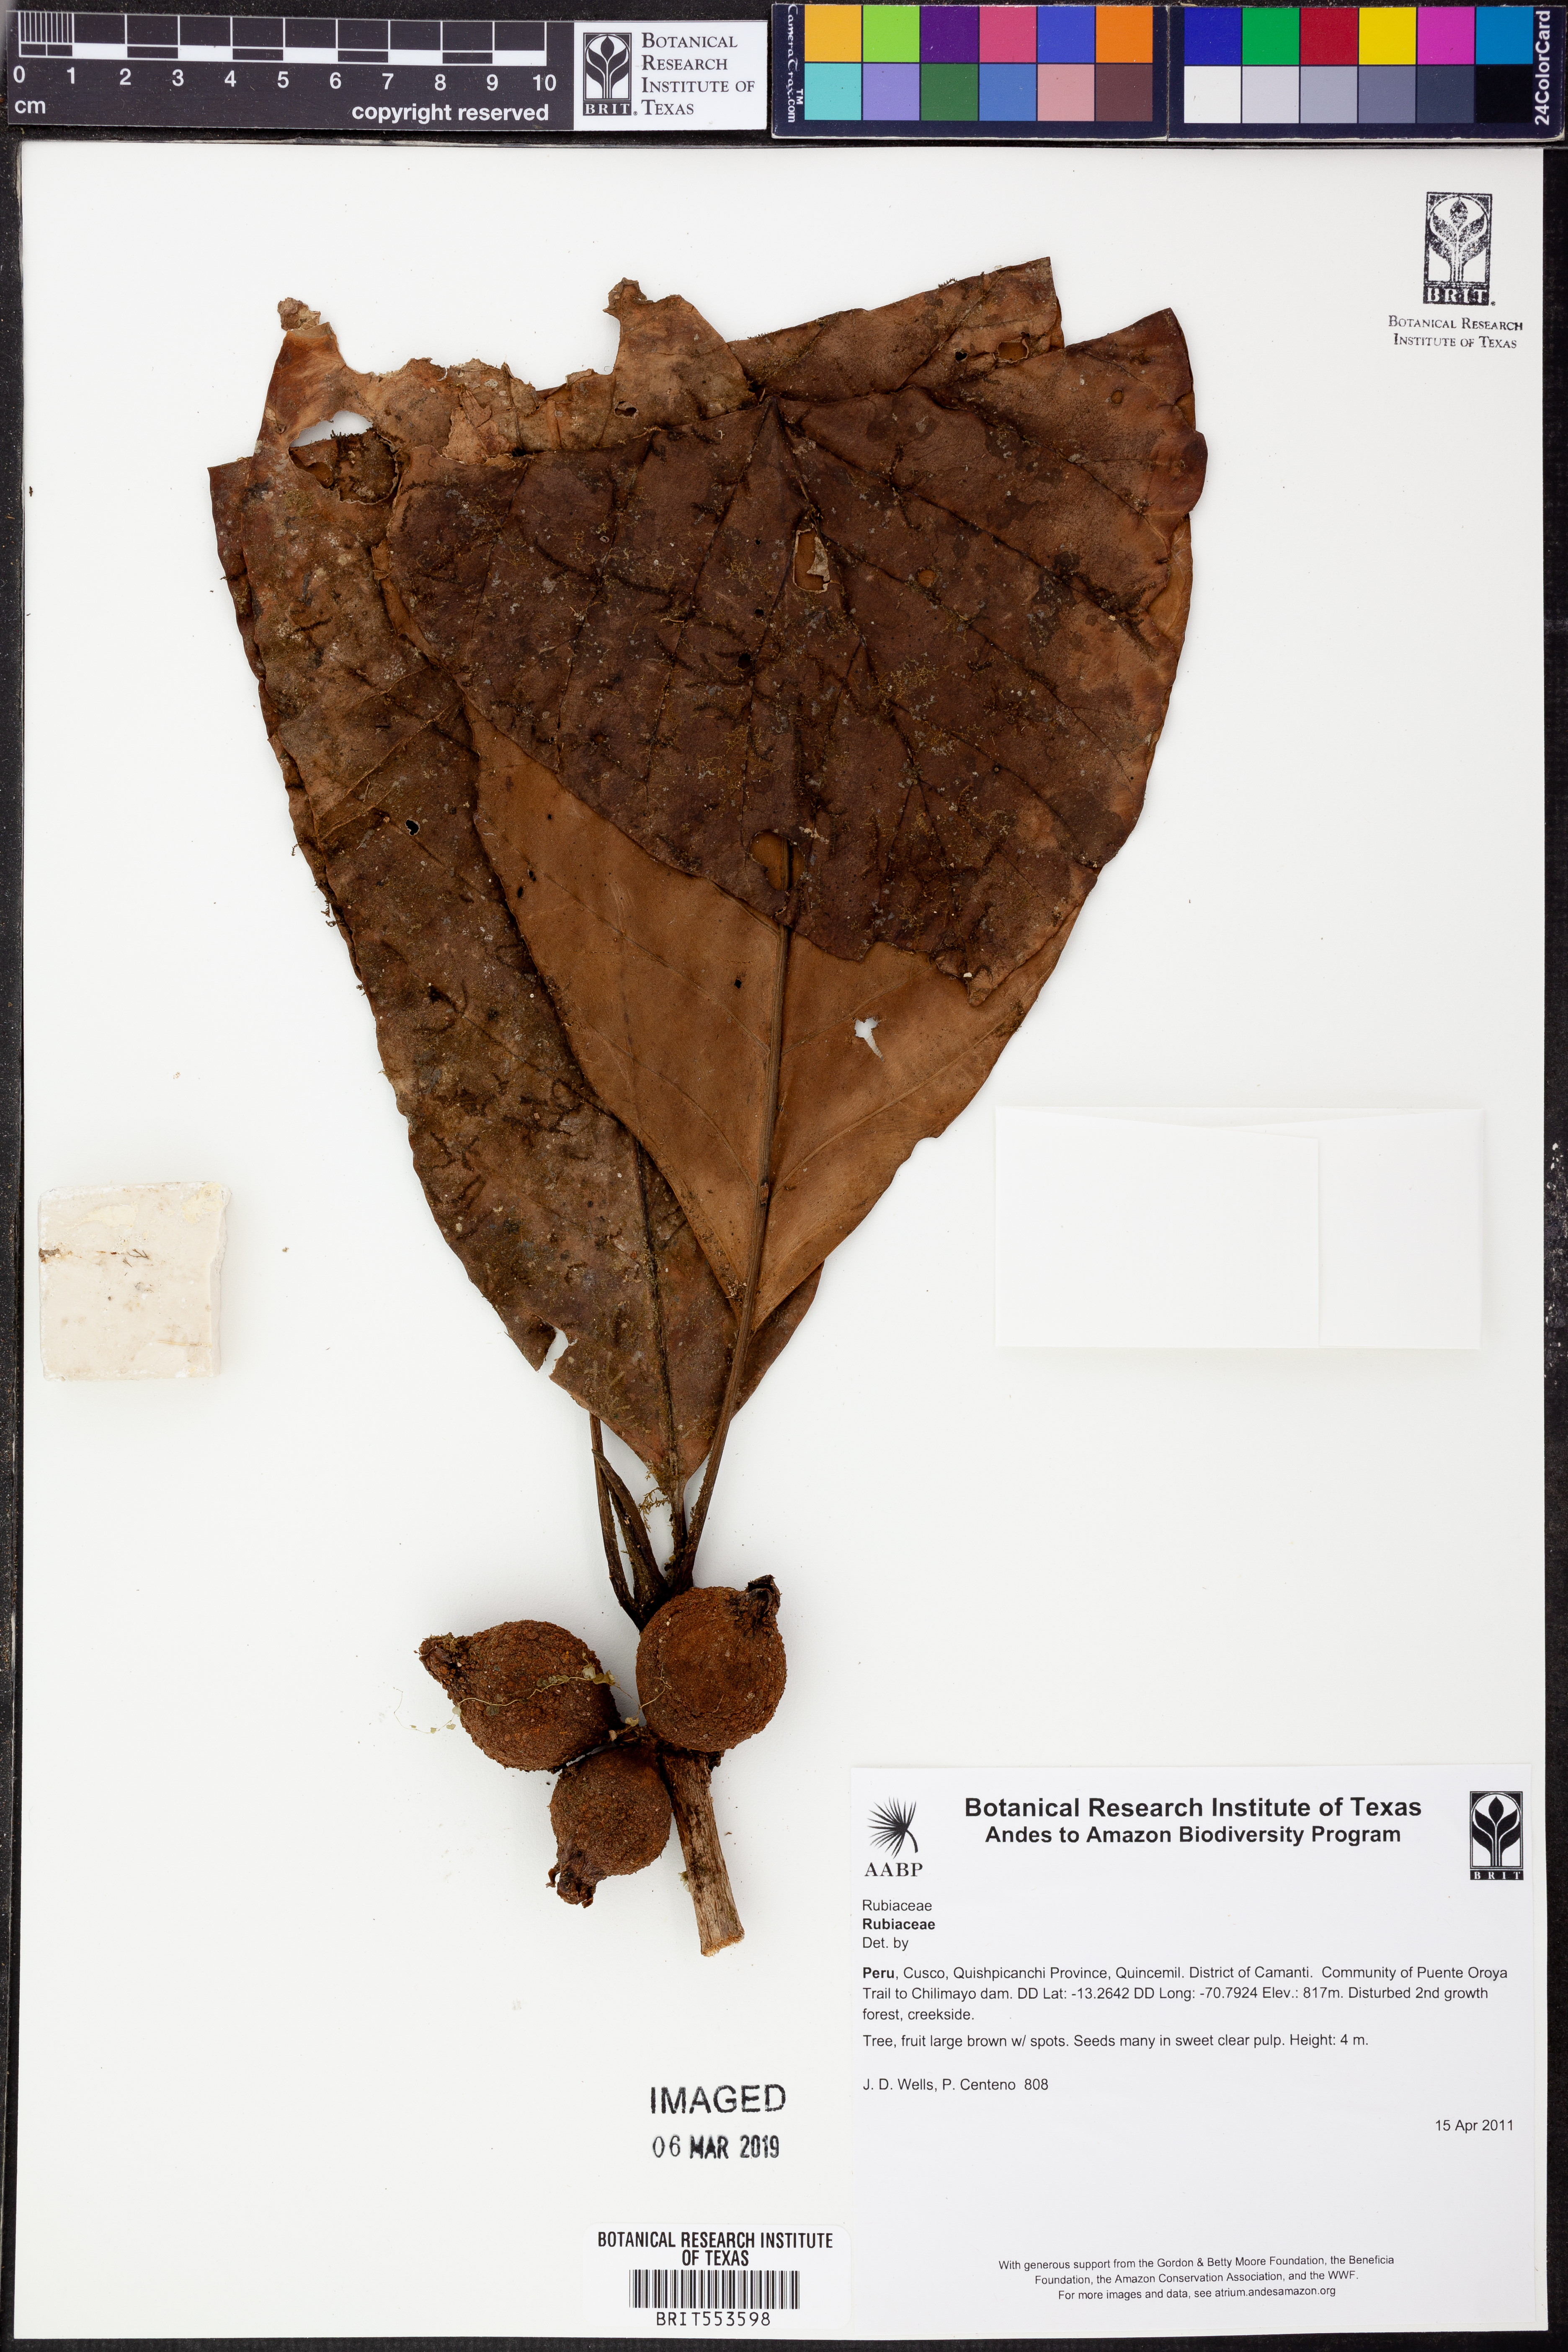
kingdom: Plantae
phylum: Tracheophyta
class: Magnoliopsida
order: Gentianales
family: Rubiaceae
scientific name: Rubiaceae
